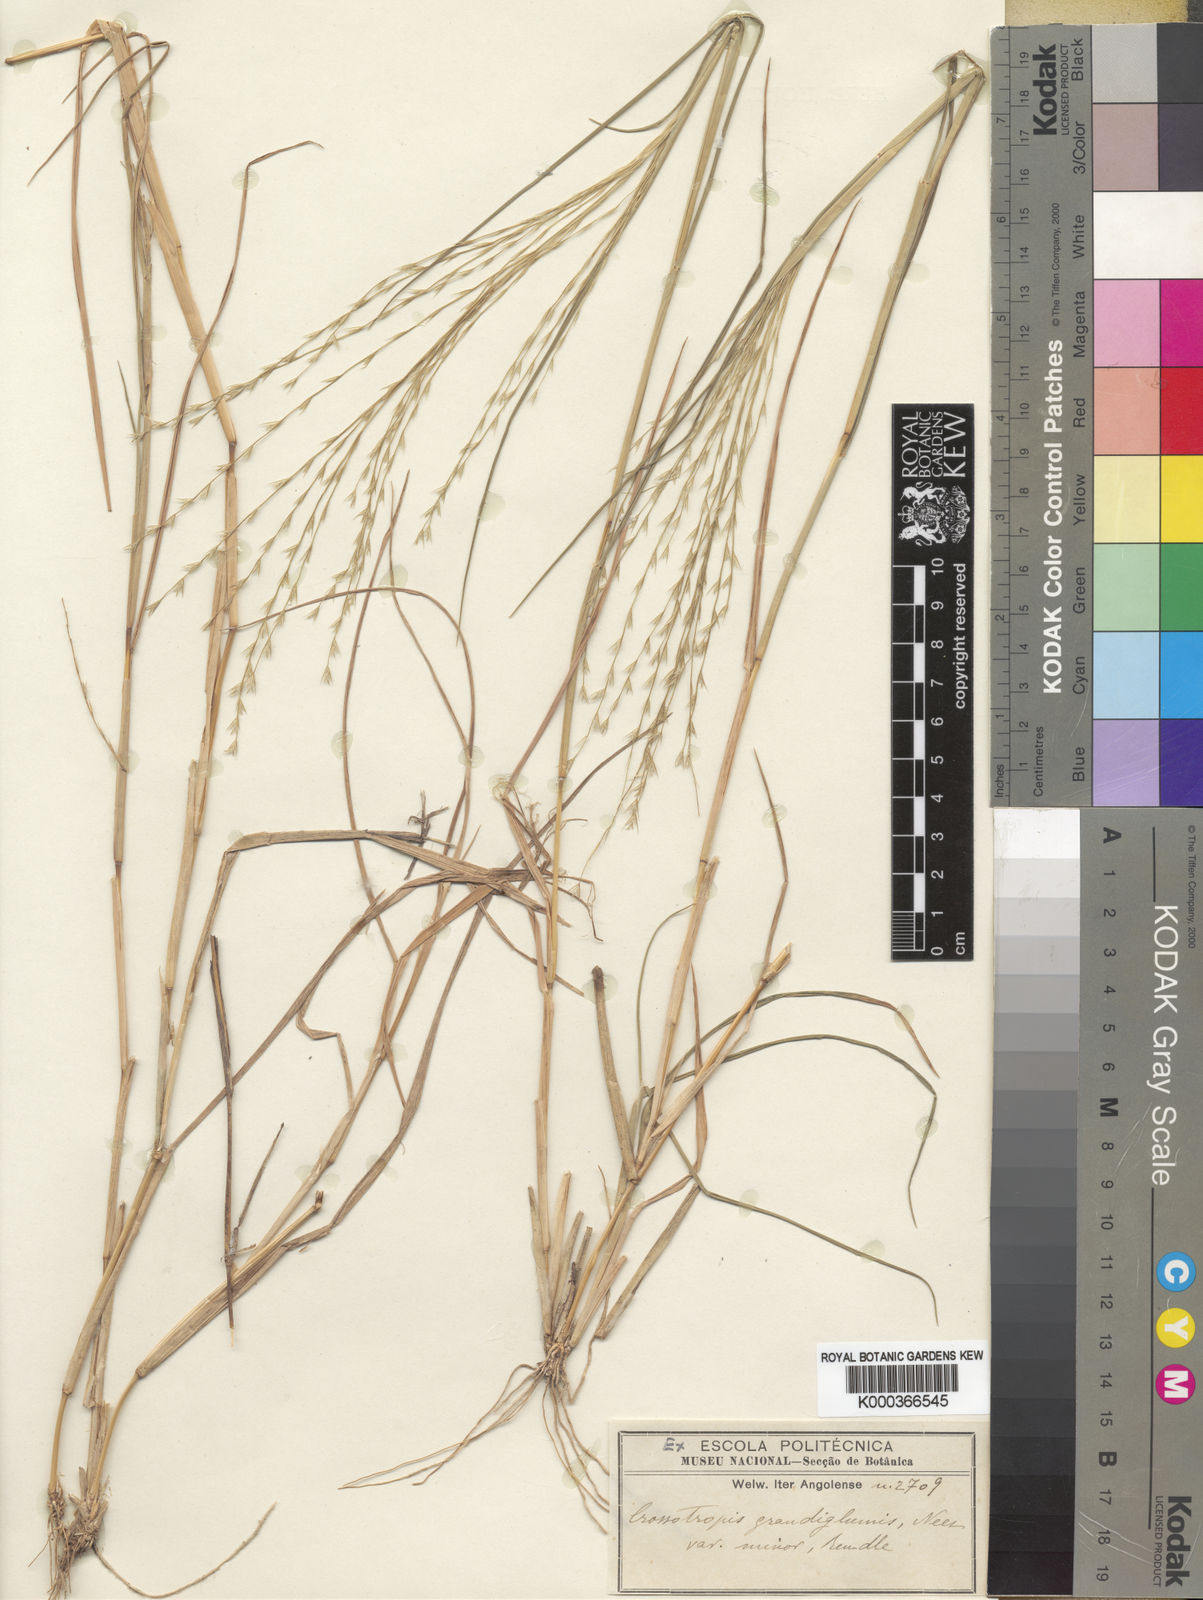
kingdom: Plantae
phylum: Tracheophyta
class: Liliopsida
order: Poales
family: Poaceae
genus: Trichoneura
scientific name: Trichoneura grandiglumis
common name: Rolling grass
